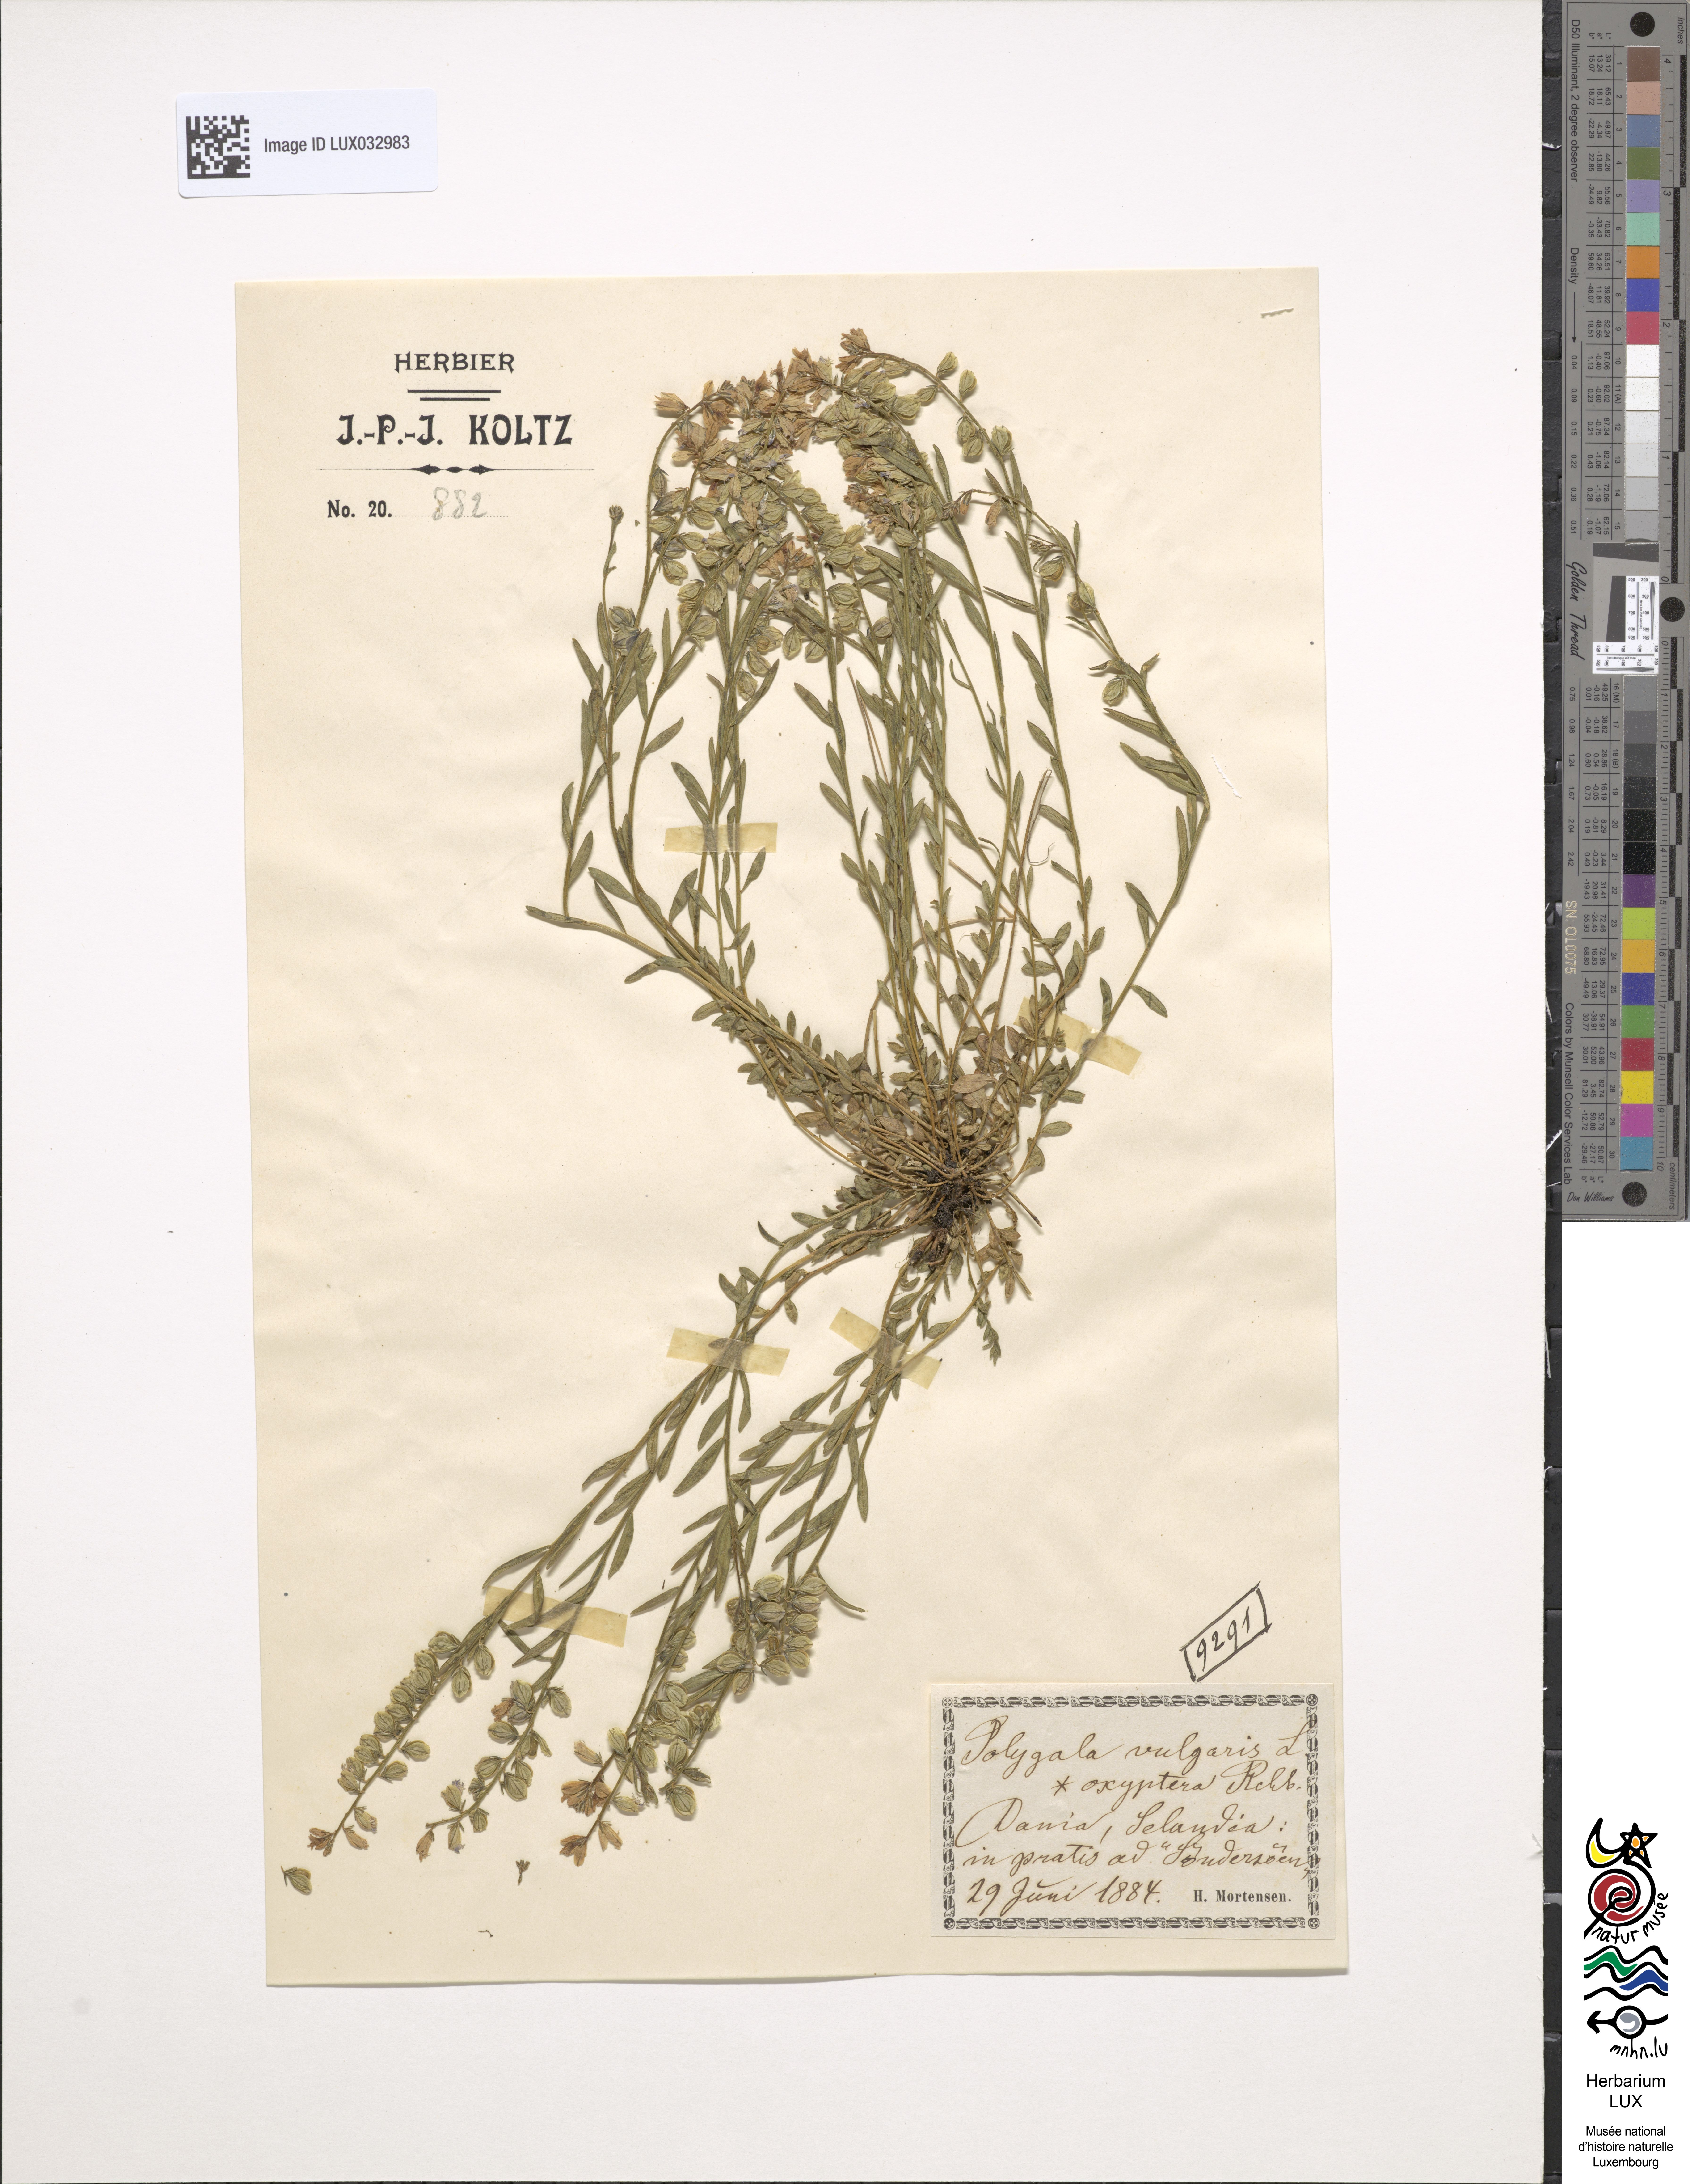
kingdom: Plantae
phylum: Tracheophyta
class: Magnoliopsida
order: Fabales
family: Polygalaceae
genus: Polygala
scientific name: Polygala vulgaris
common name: Common milkwort
